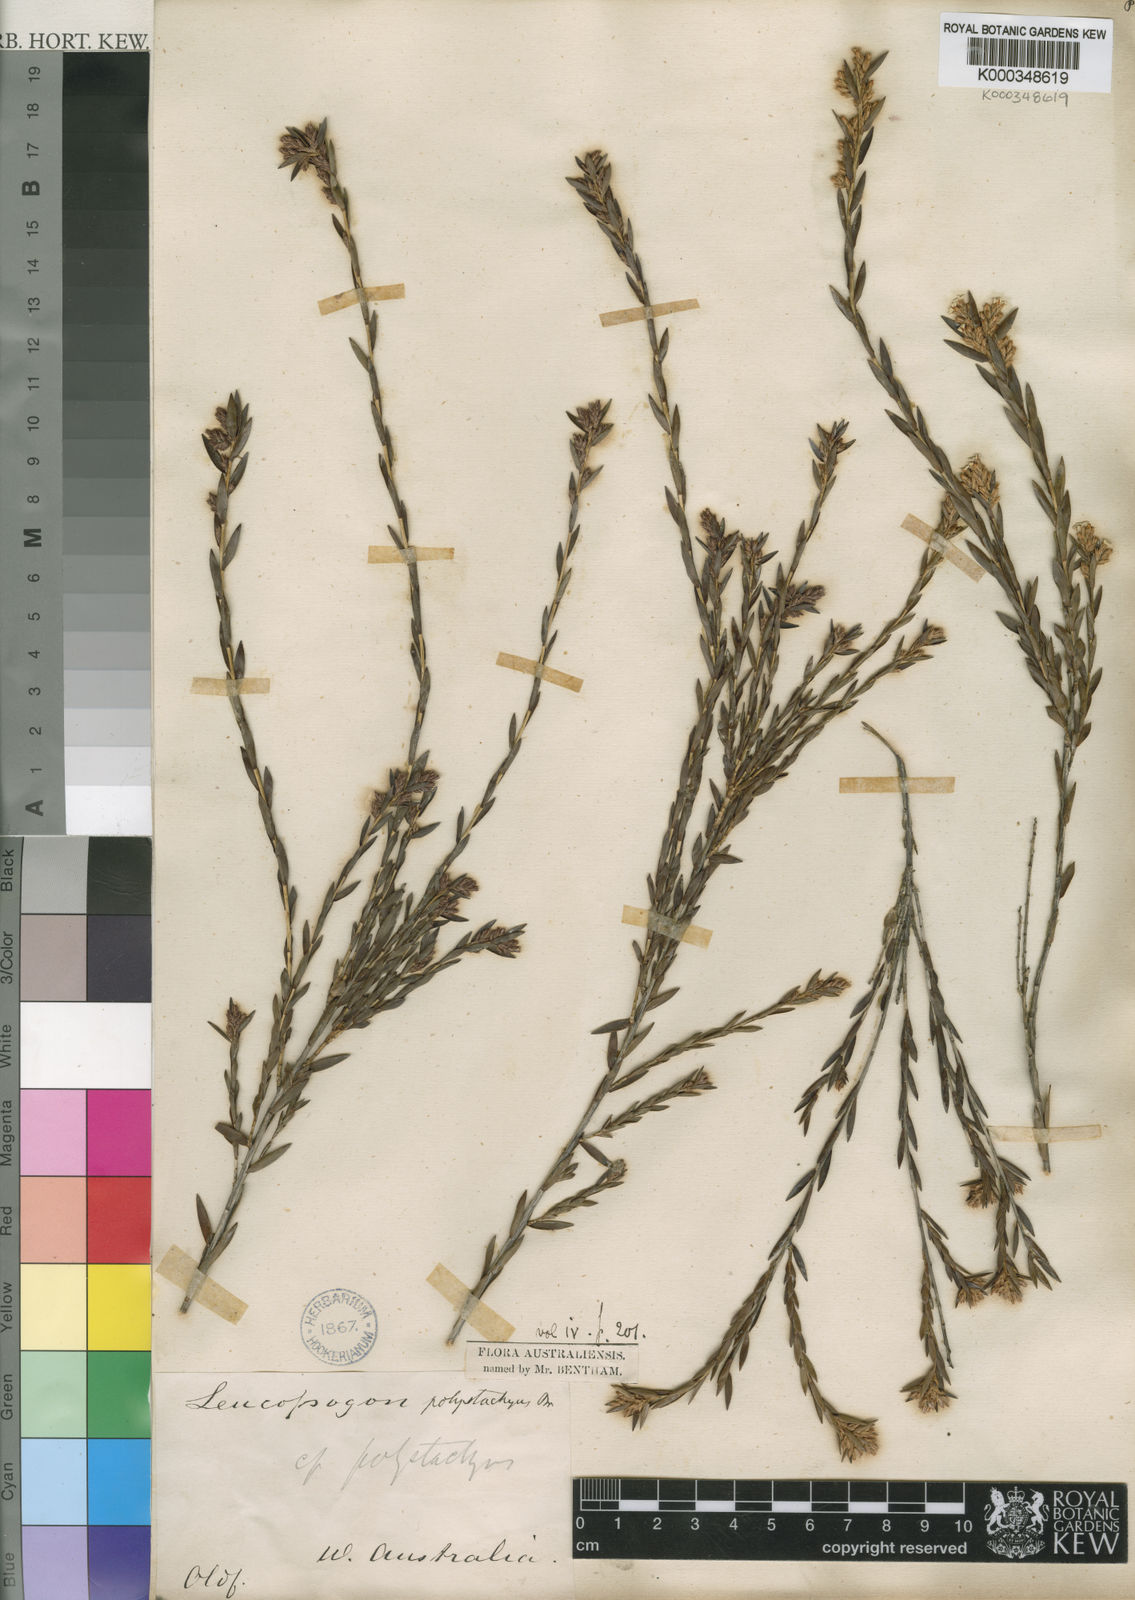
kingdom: Plantae
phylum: Tracheophyta
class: Magnoliopsida
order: Ericales
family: Ericaceae
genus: Leucopogon
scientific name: Leucopogon polystachyus
